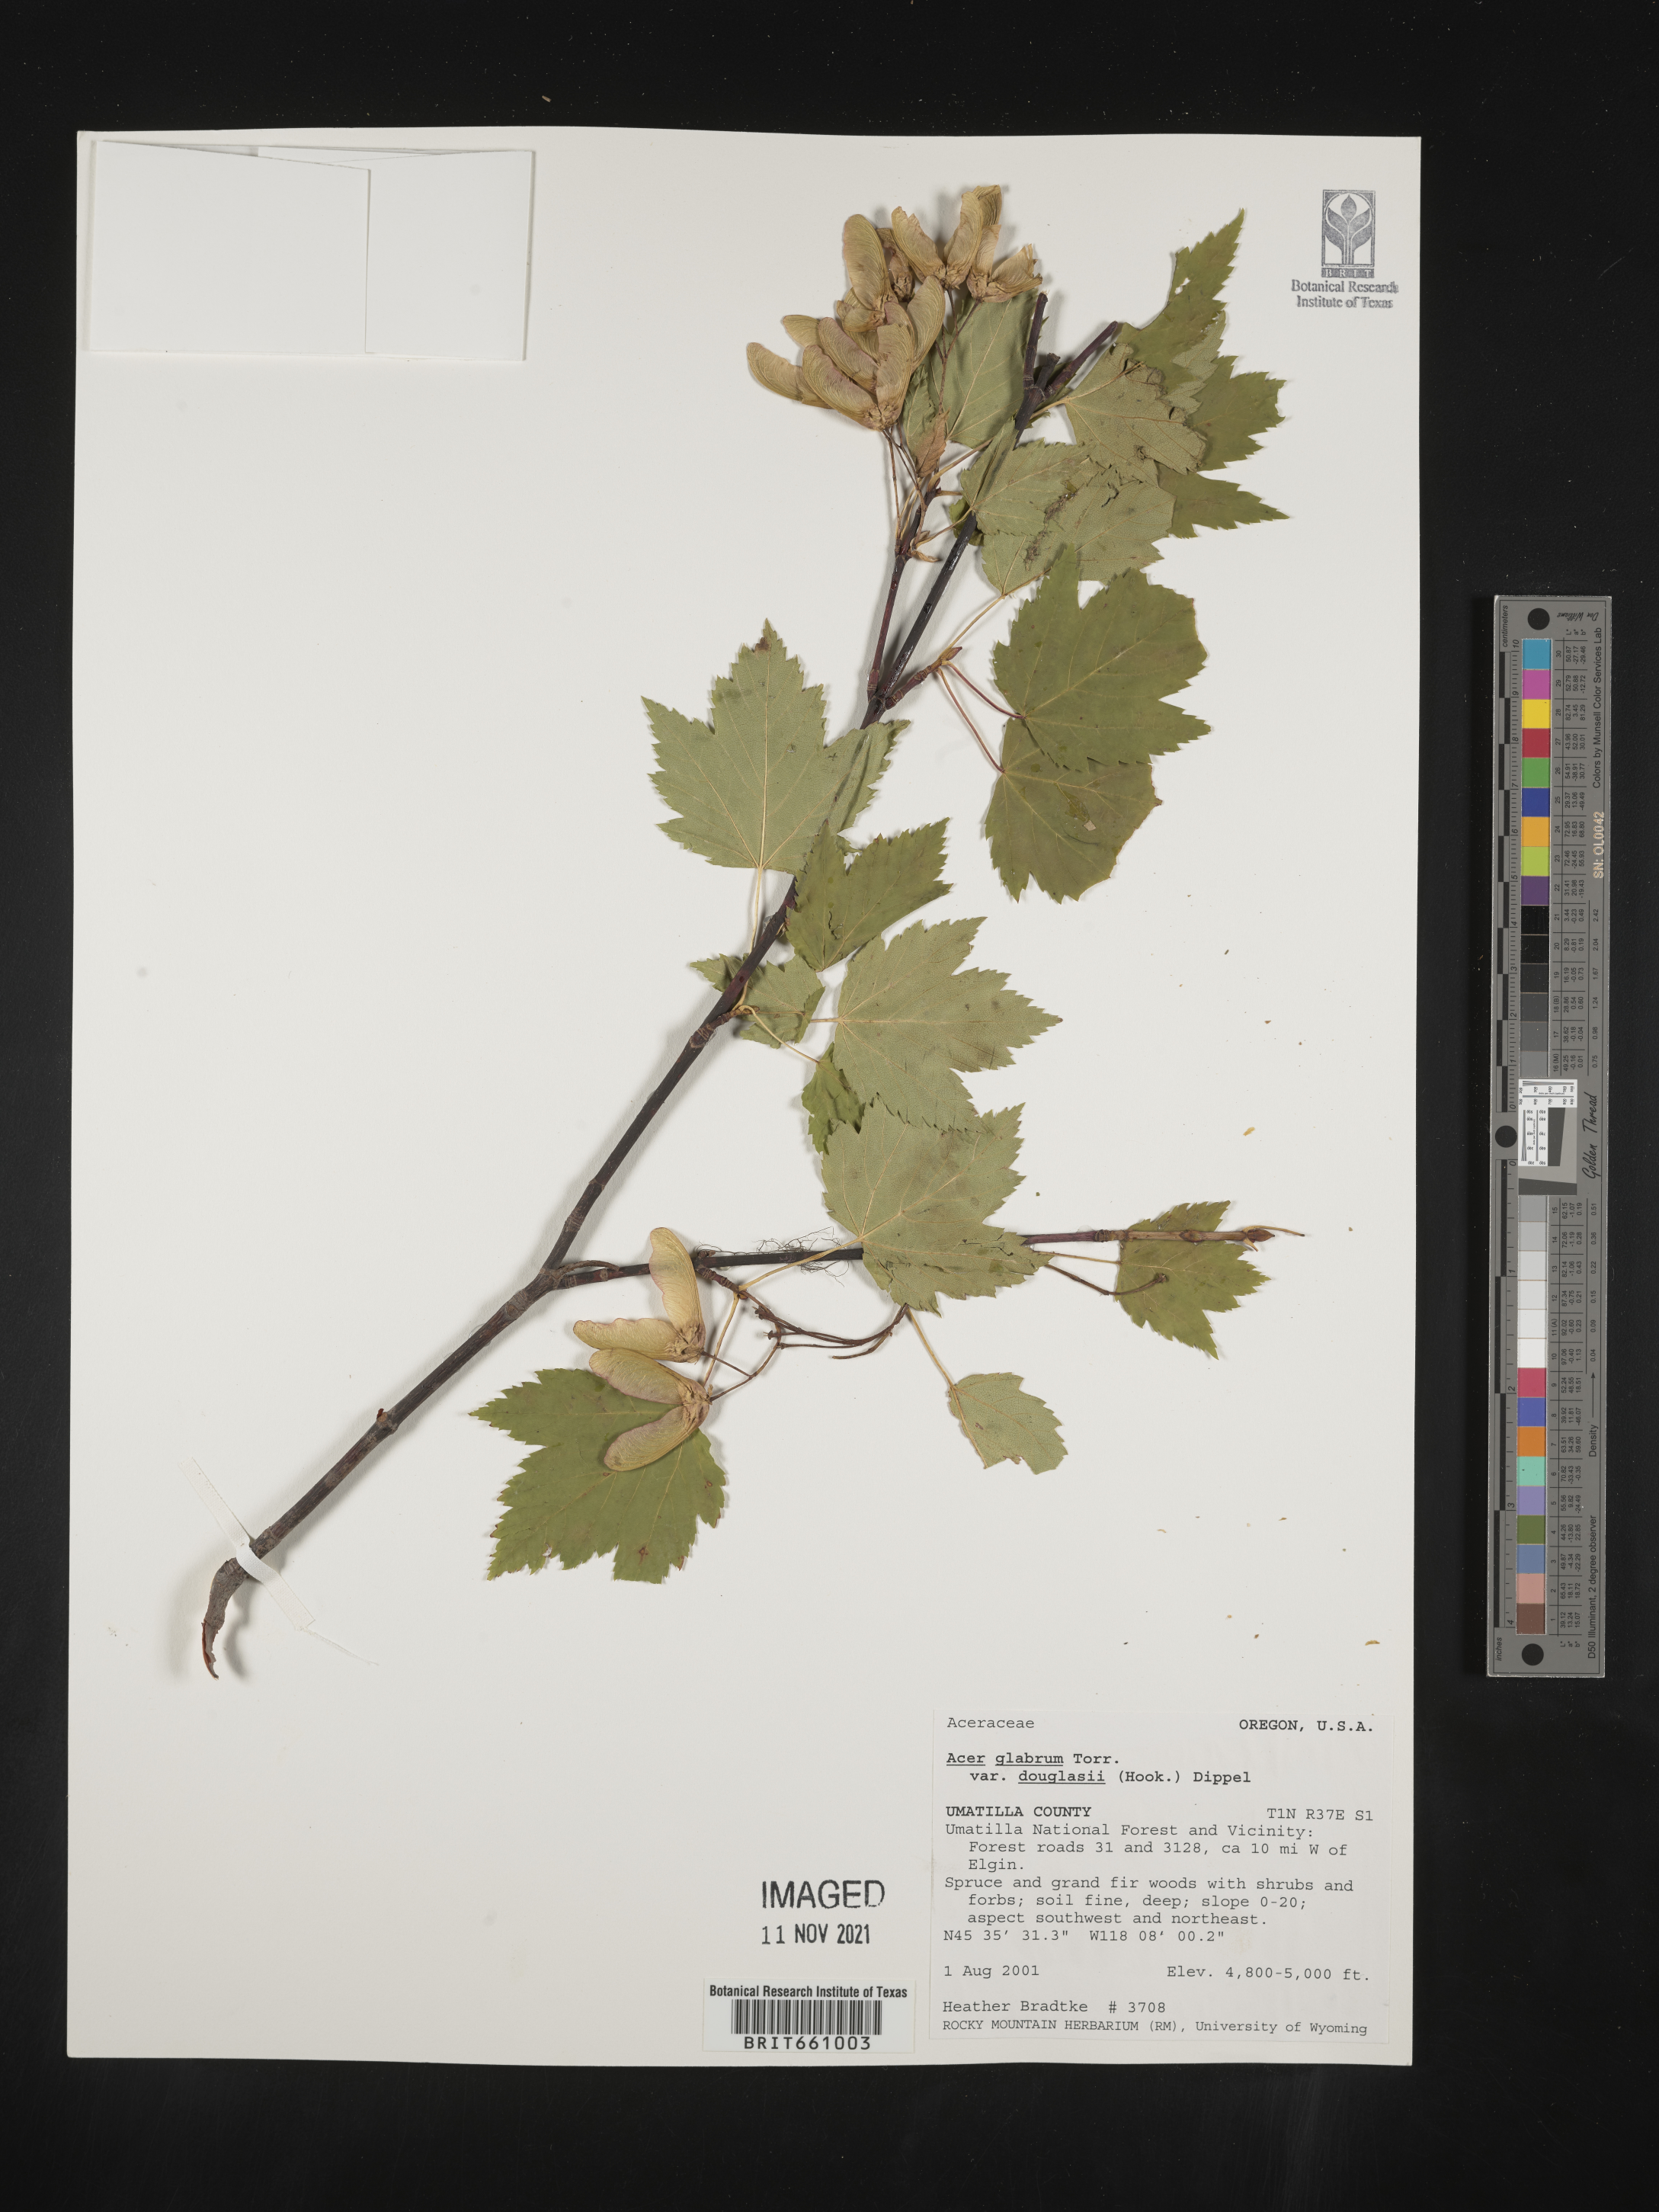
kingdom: Plantae
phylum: Tracheophyta
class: Magnoliopsida
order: Sapindales
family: Sapindaceae
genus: Acer
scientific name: Acer glabrum
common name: Rocky mountain maple
